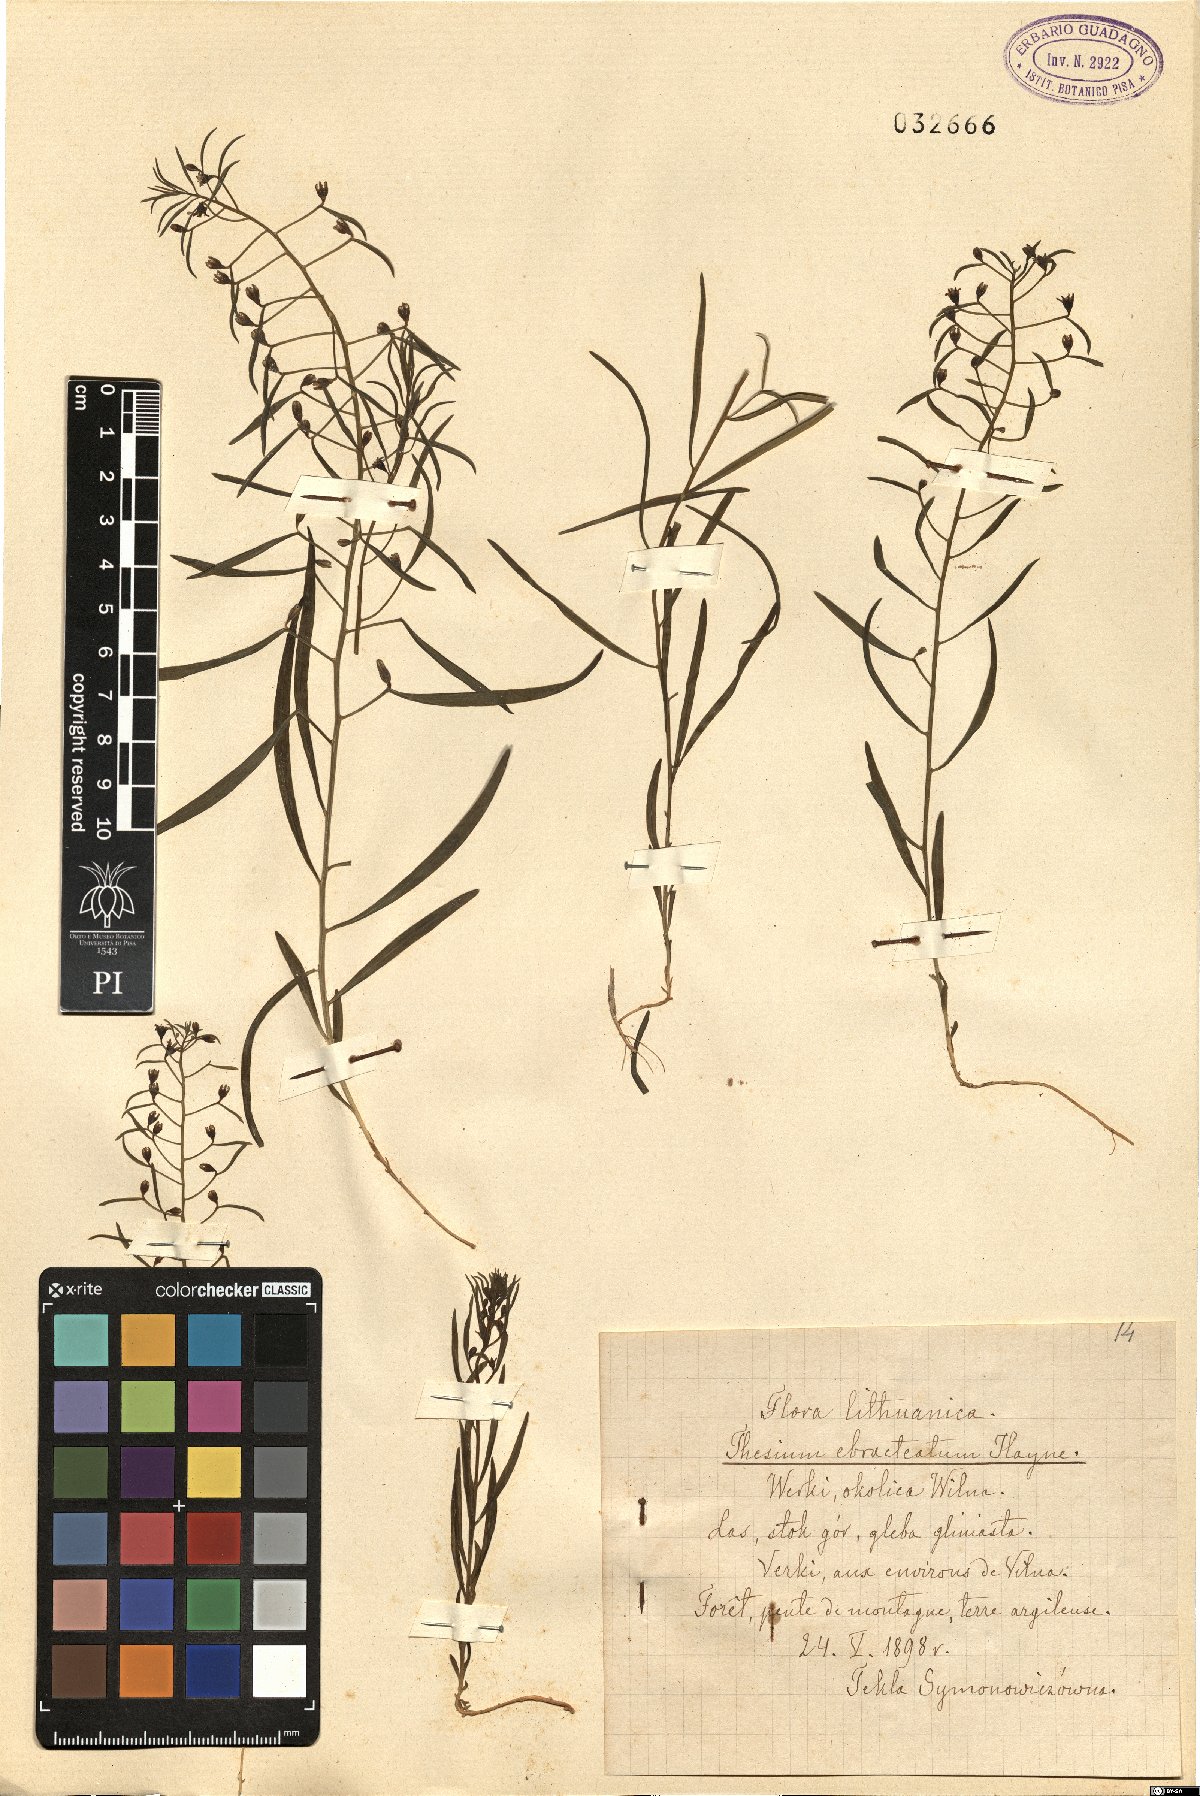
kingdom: Plantae
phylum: Tracheophyta
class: Magnoliopsida
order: Santalales
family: Thesiaceae
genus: Thesium
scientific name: Thesium ebracteatum
